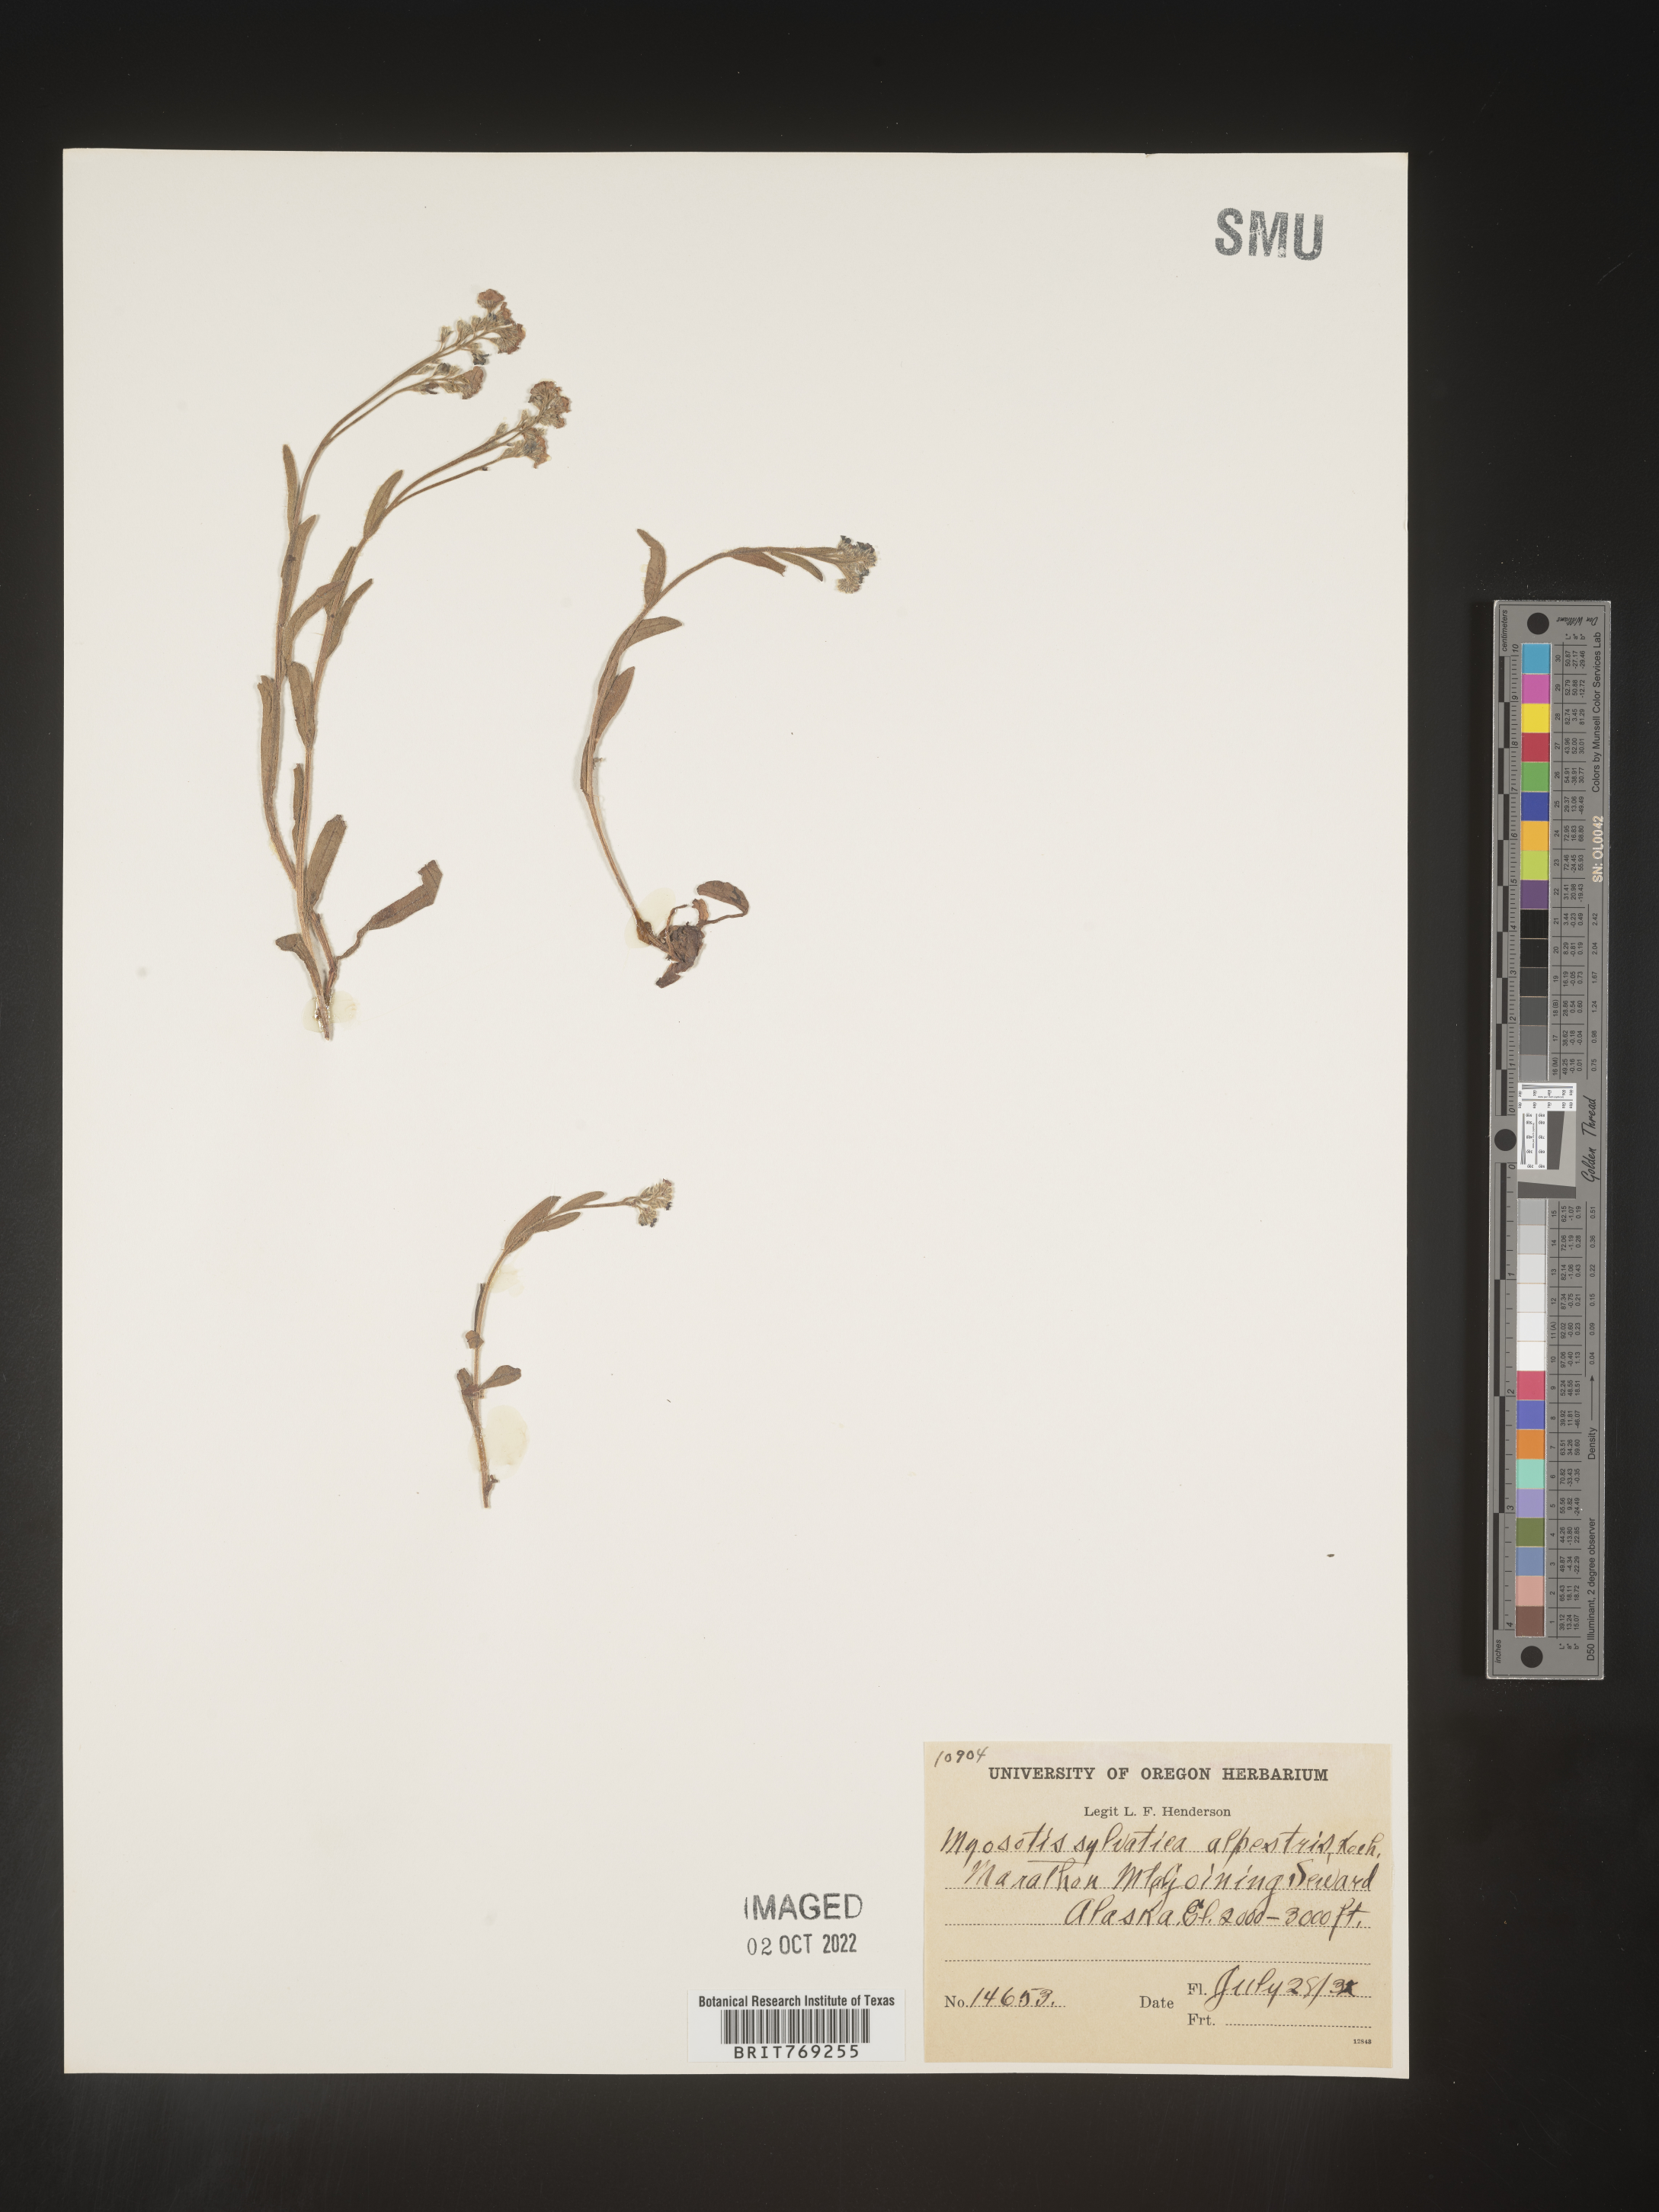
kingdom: Plantae
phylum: Tracheophyta
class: Magnoliopsida
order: Boraginales
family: Boraginaceae
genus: Myosotis
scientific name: Myosotis sylvatica
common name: Wood forget-me-not
